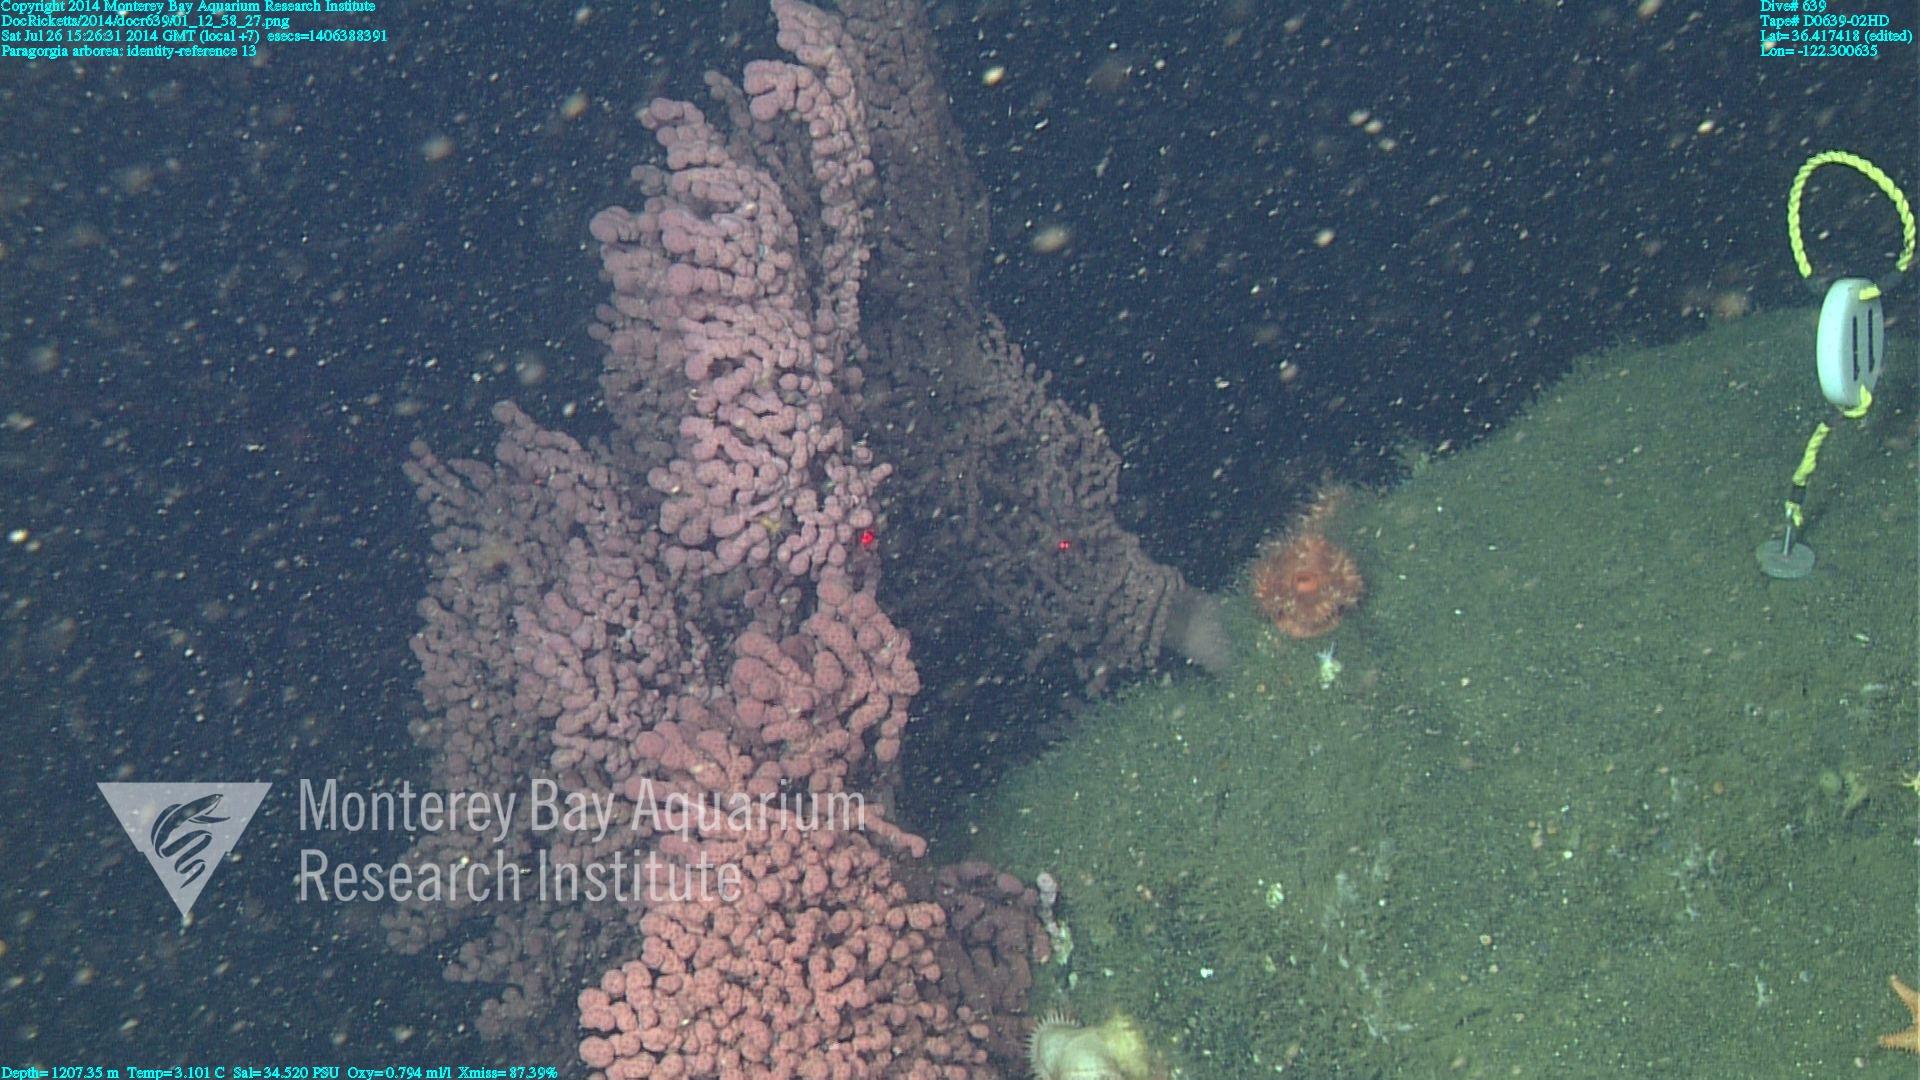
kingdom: Animalia
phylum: Cnidaria
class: Anthozoa
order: Scleralcyonacea
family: Coralliidae
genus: Paragorgia
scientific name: Paragorgia arborea
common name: Bubble gum coral
